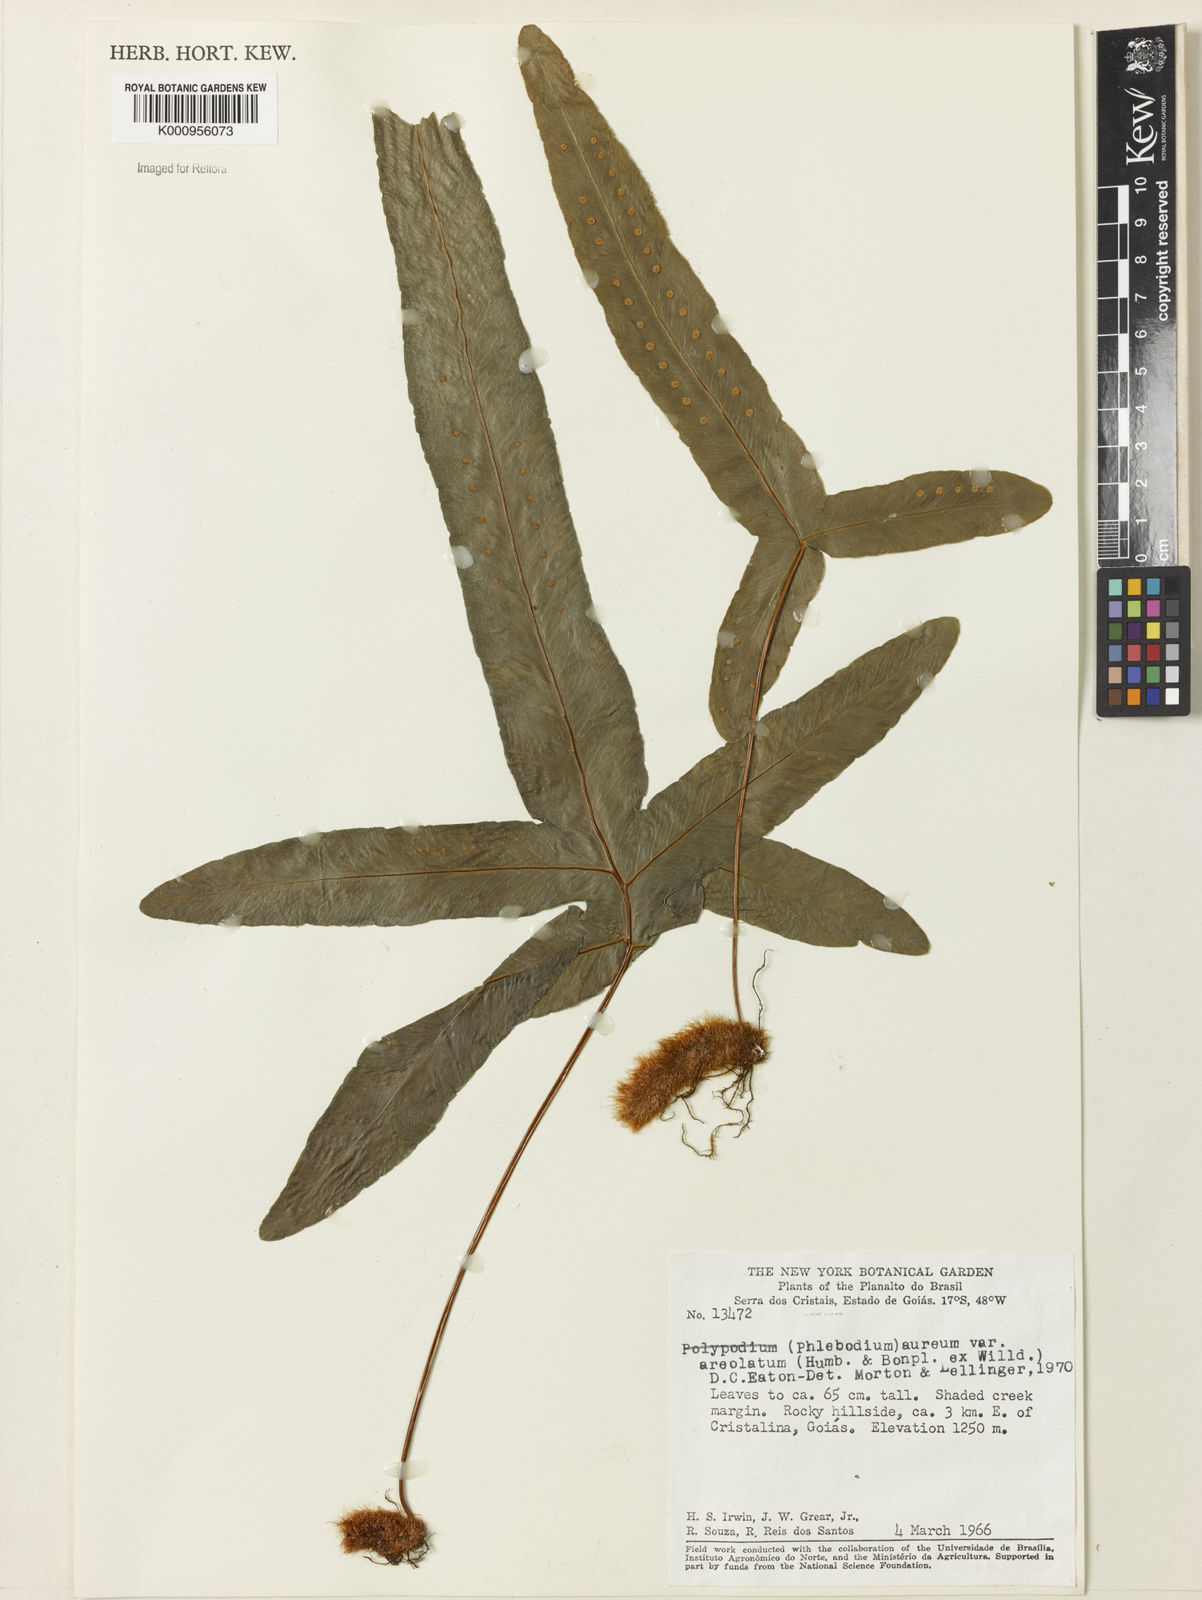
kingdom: Plantae
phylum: Tracheophyta
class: Polypodiopsida
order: Polypodiales
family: Polypodiaceae
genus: Phlebodium
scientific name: Phlebodium aureum
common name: Gold-foot fern
